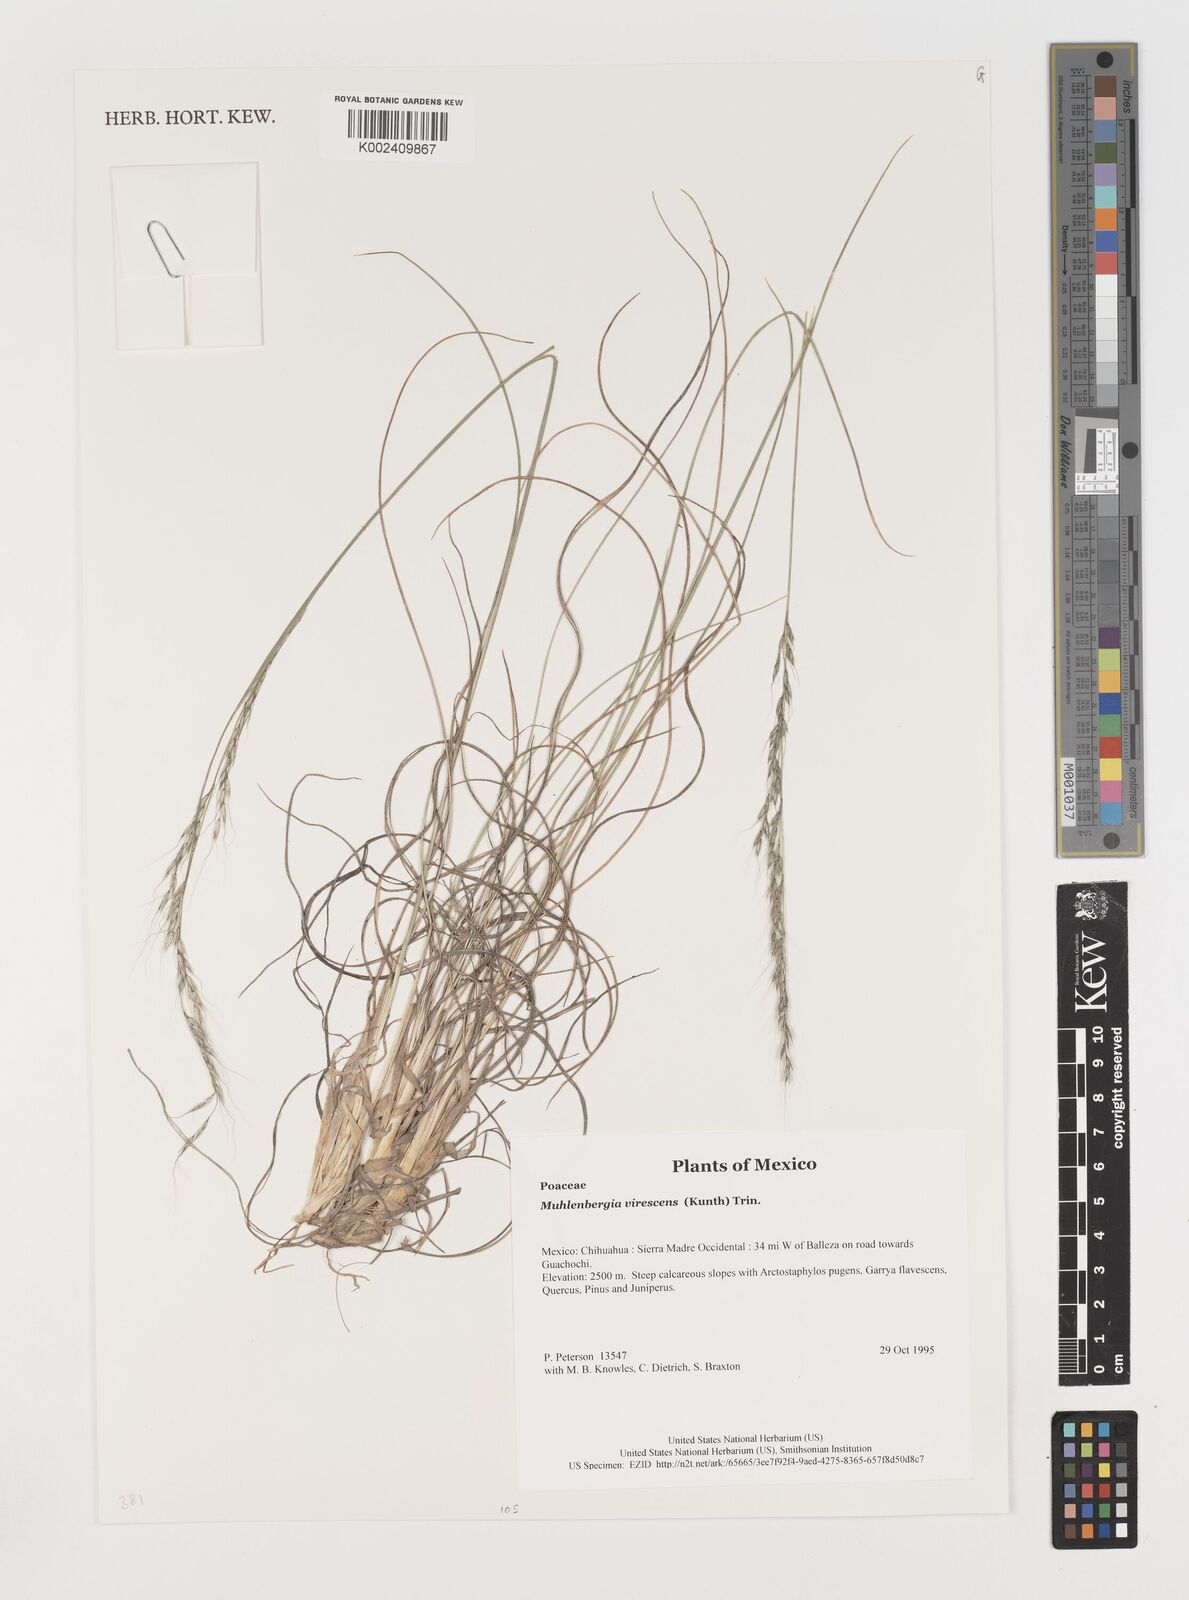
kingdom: Plantae
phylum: Tracheophyta
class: Liliopsida
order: Poales
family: Poaceae
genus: Muhlenbergia
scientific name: Muhlenbergia virescens
